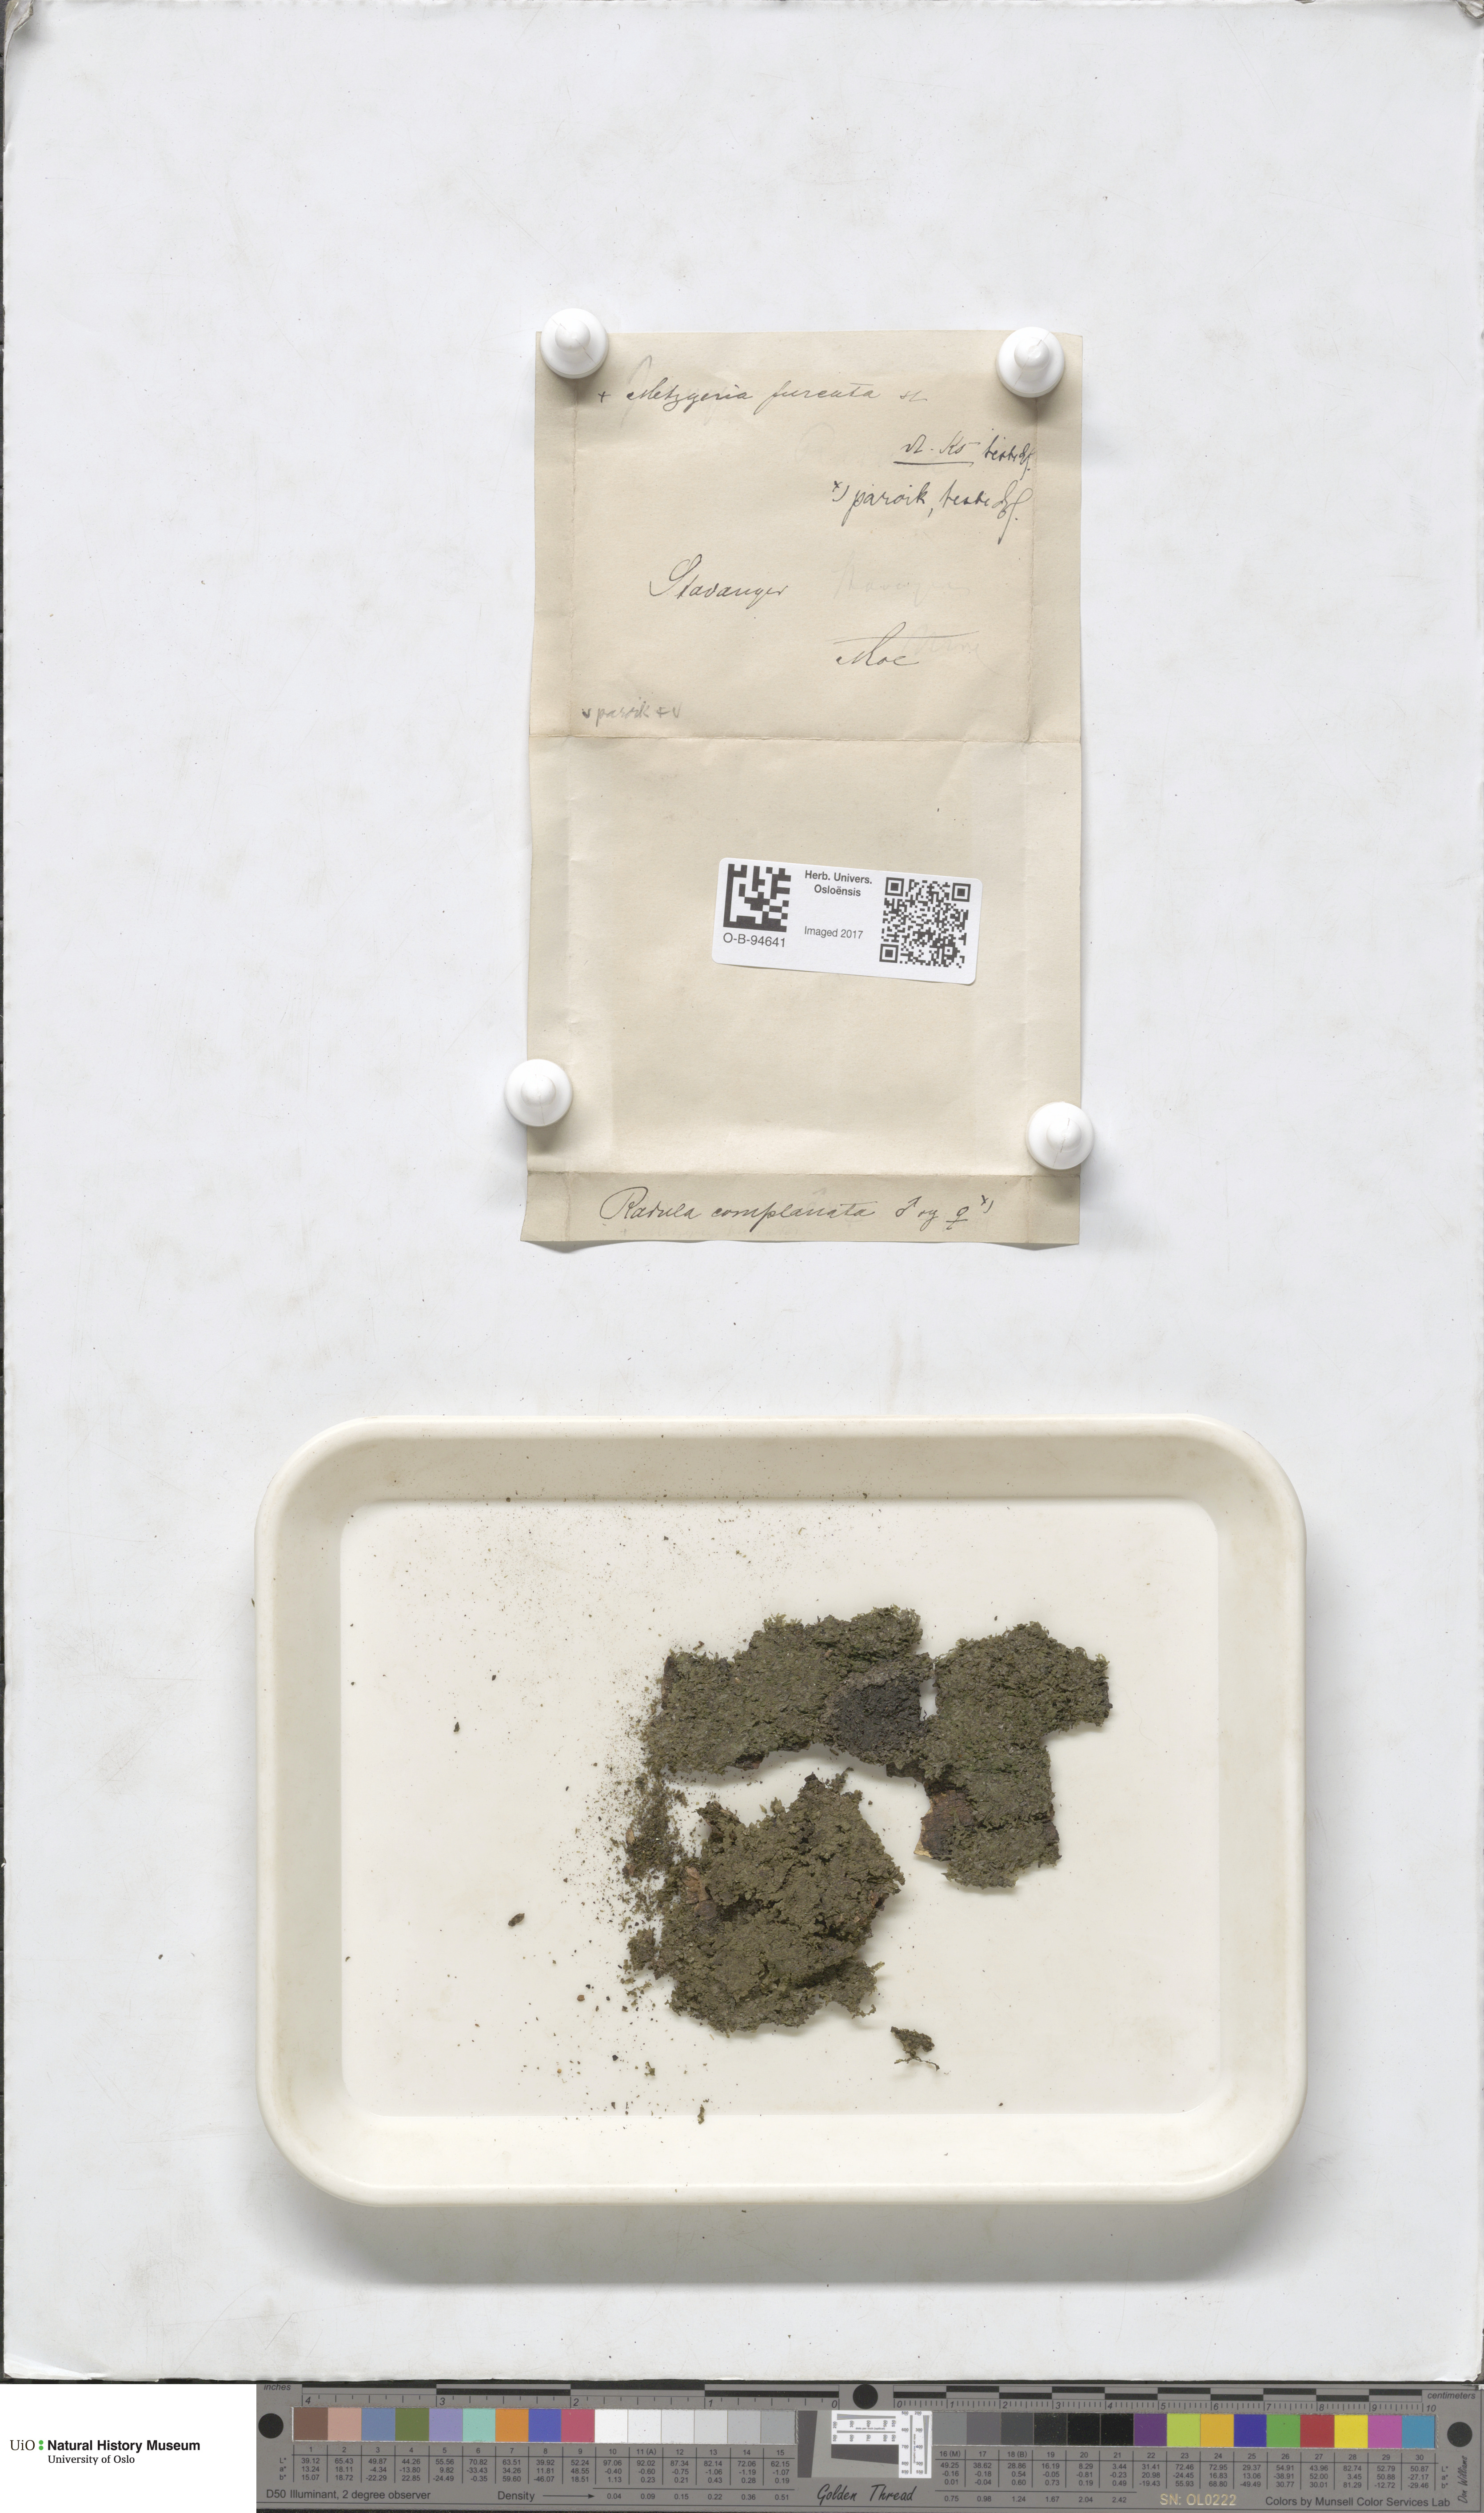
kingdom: Plantae
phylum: Marchantiophyta
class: Jungermanniopsida
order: Metzgeriales
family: Metzgeriaceae
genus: Metzgeria
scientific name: Metzgeria furcata
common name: Forked veilwort
